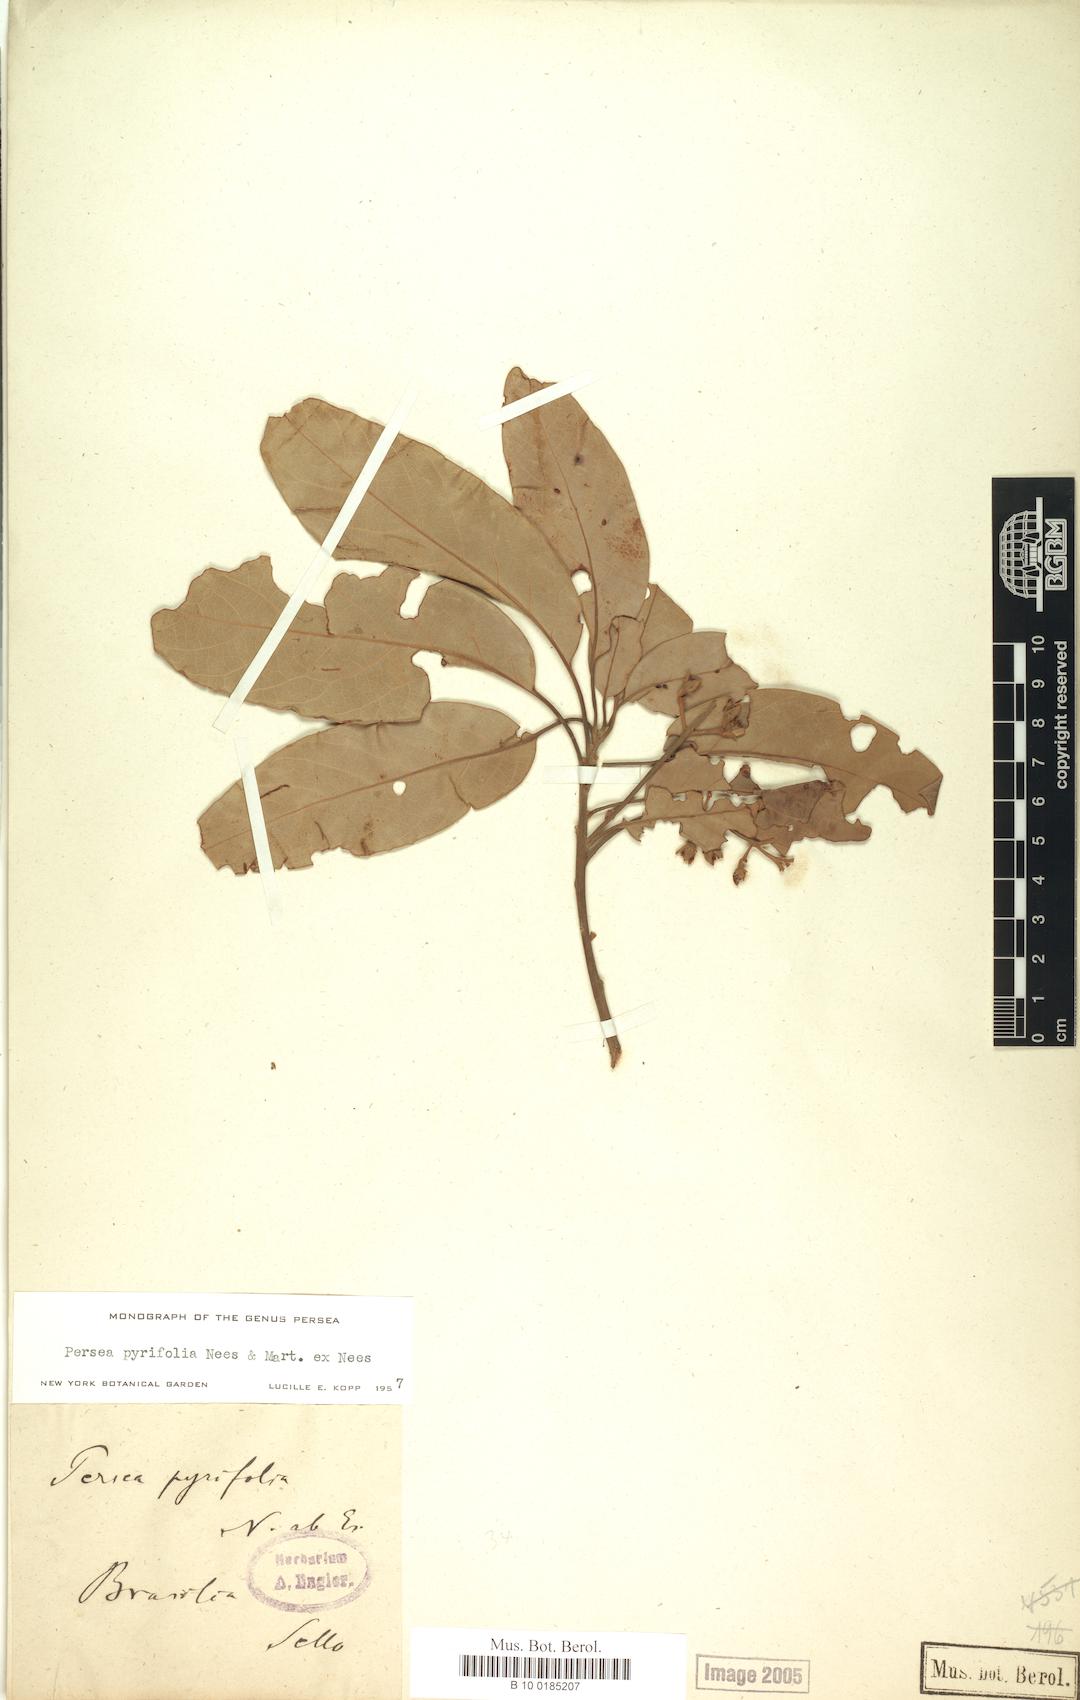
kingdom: Plantae
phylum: Tracheophyta
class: Magnoliopsida
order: Laurales
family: Lauraceae
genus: Persea
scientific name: Persea pyrifolia
